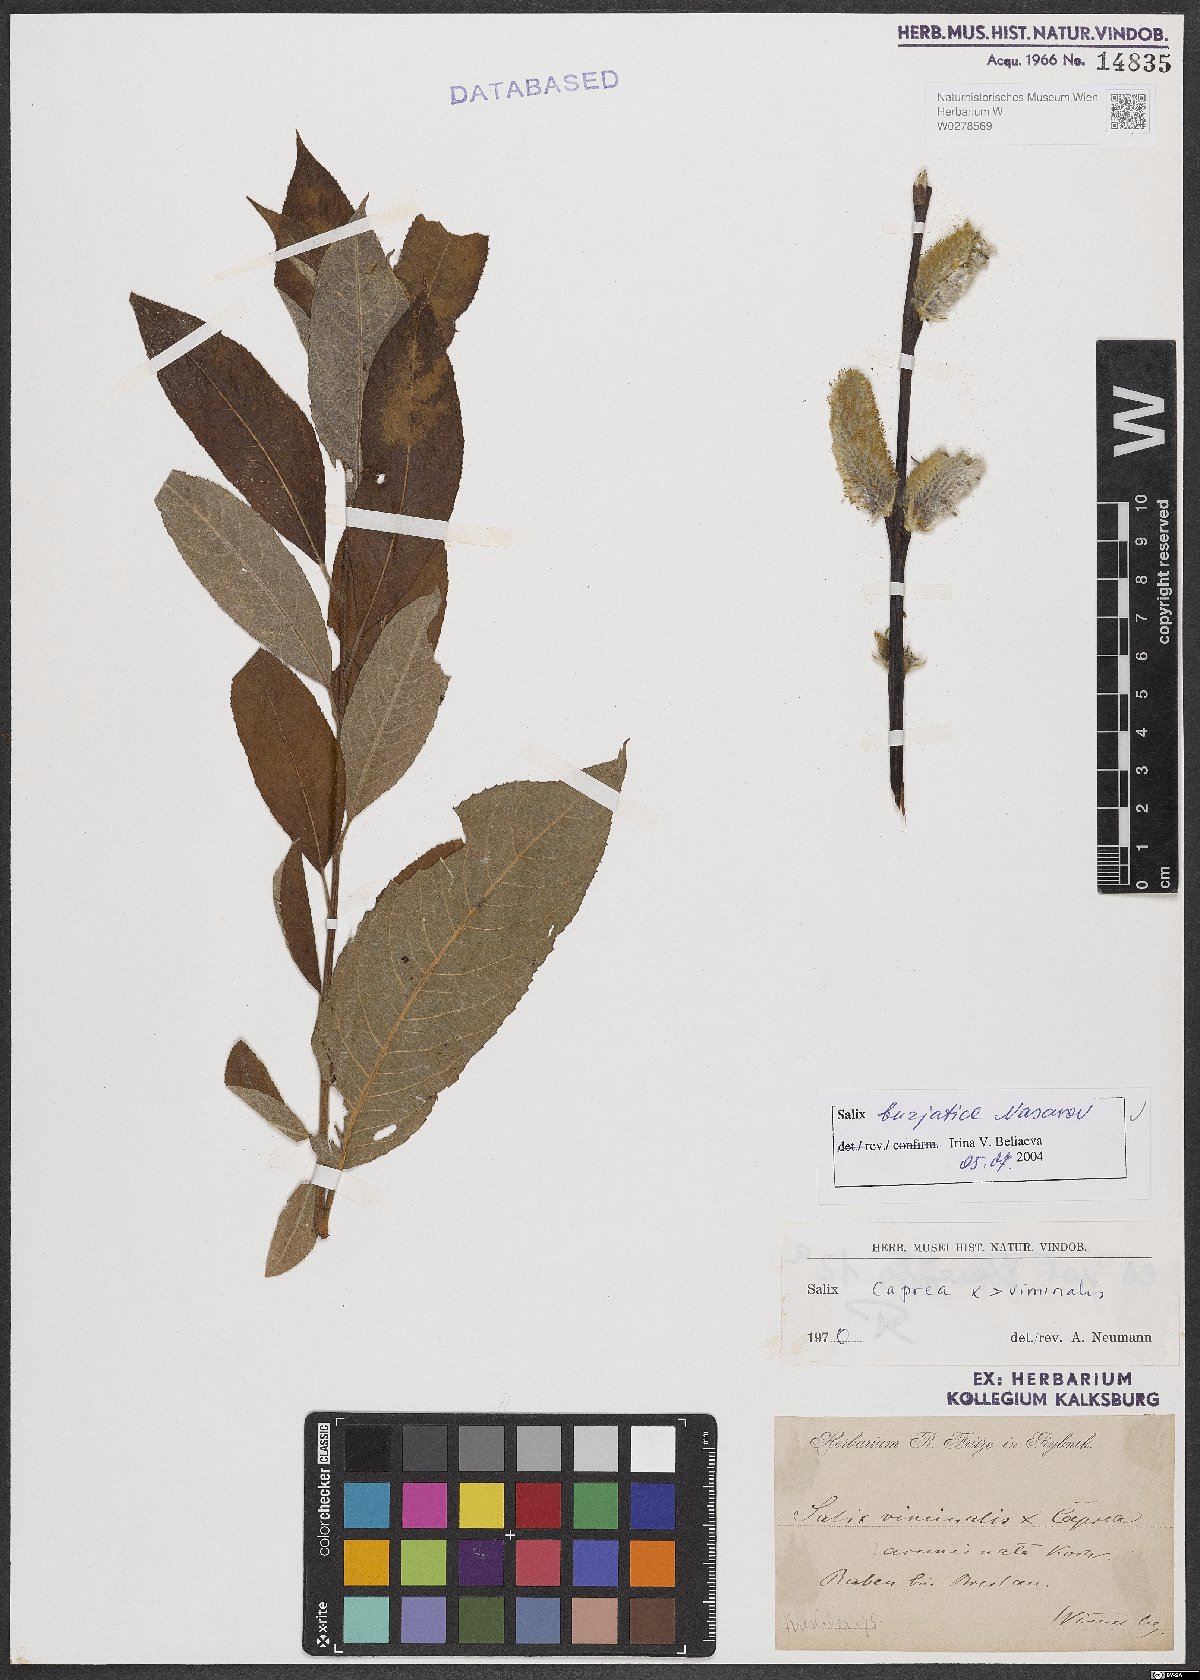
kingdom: Plantae
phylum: Tracheophyta
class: Magnoliopsida
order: Malpighiales
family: Salicaceae
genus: Salix
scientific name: Salix gmelinii
